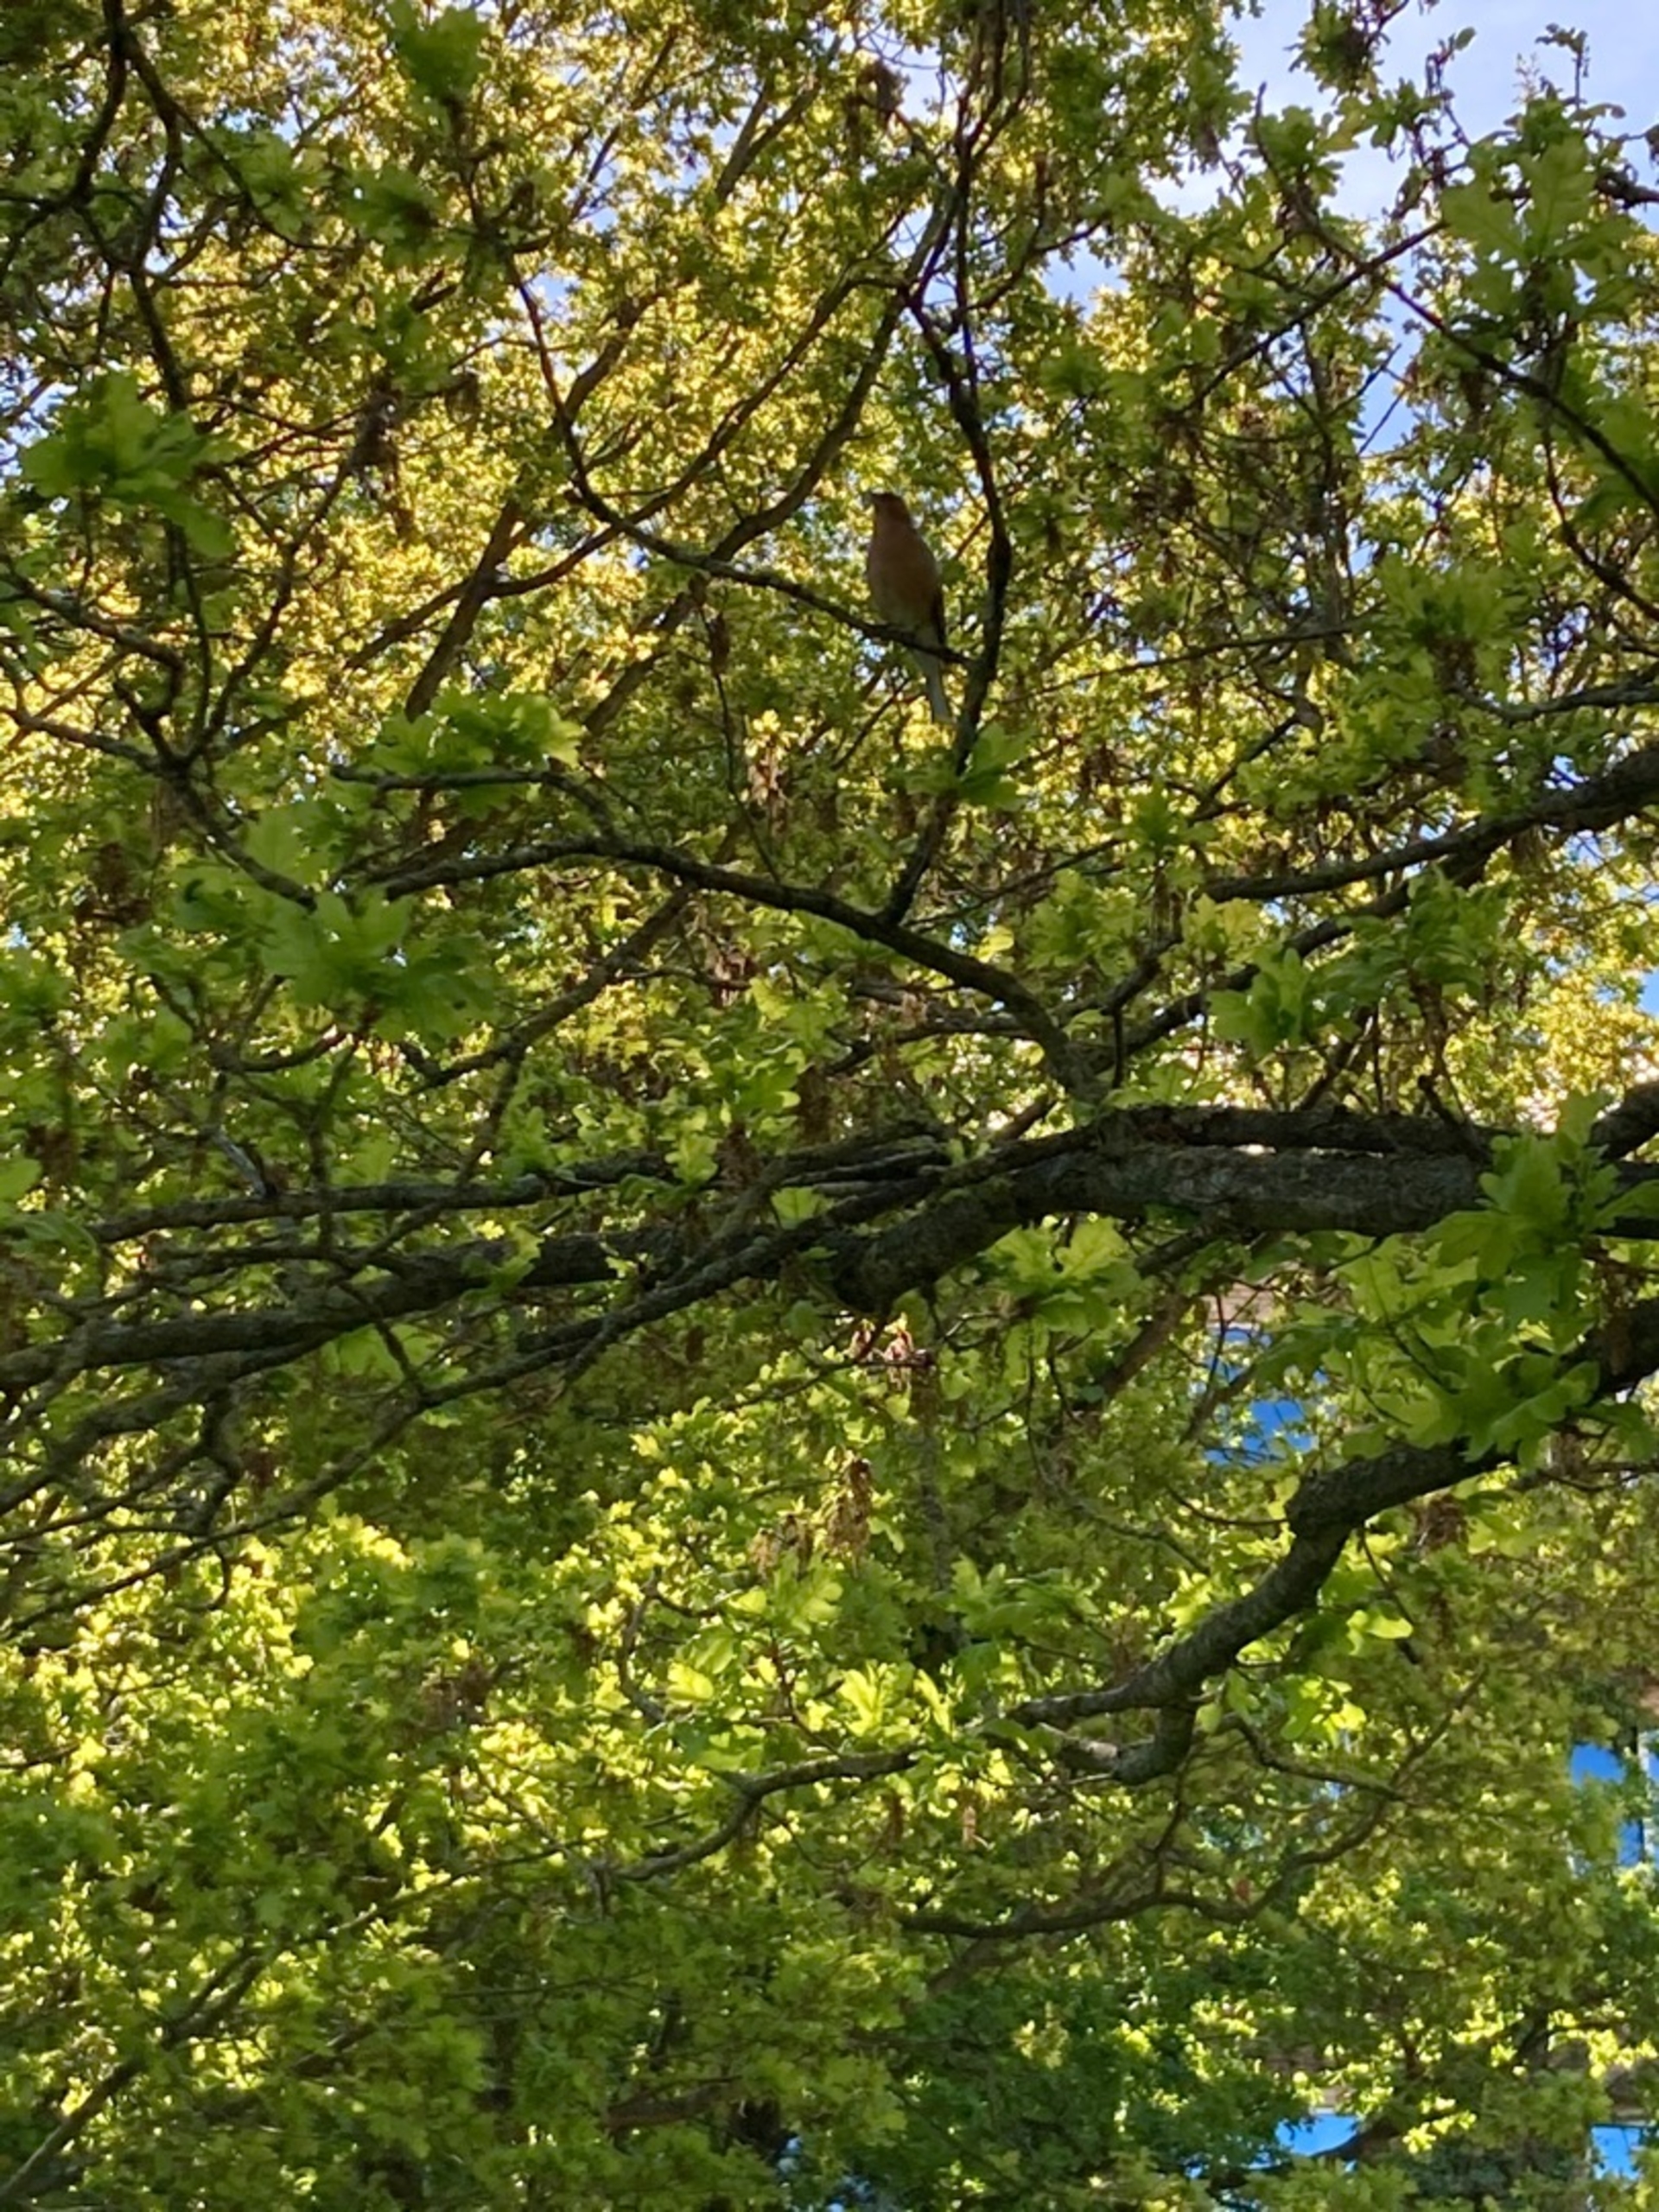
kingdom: Animalia
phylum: Chordata
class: Aves
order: Passeriformes
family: Fringillidae
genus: Fringilla
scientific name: Fringilla coelebs
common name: Bogfinke
